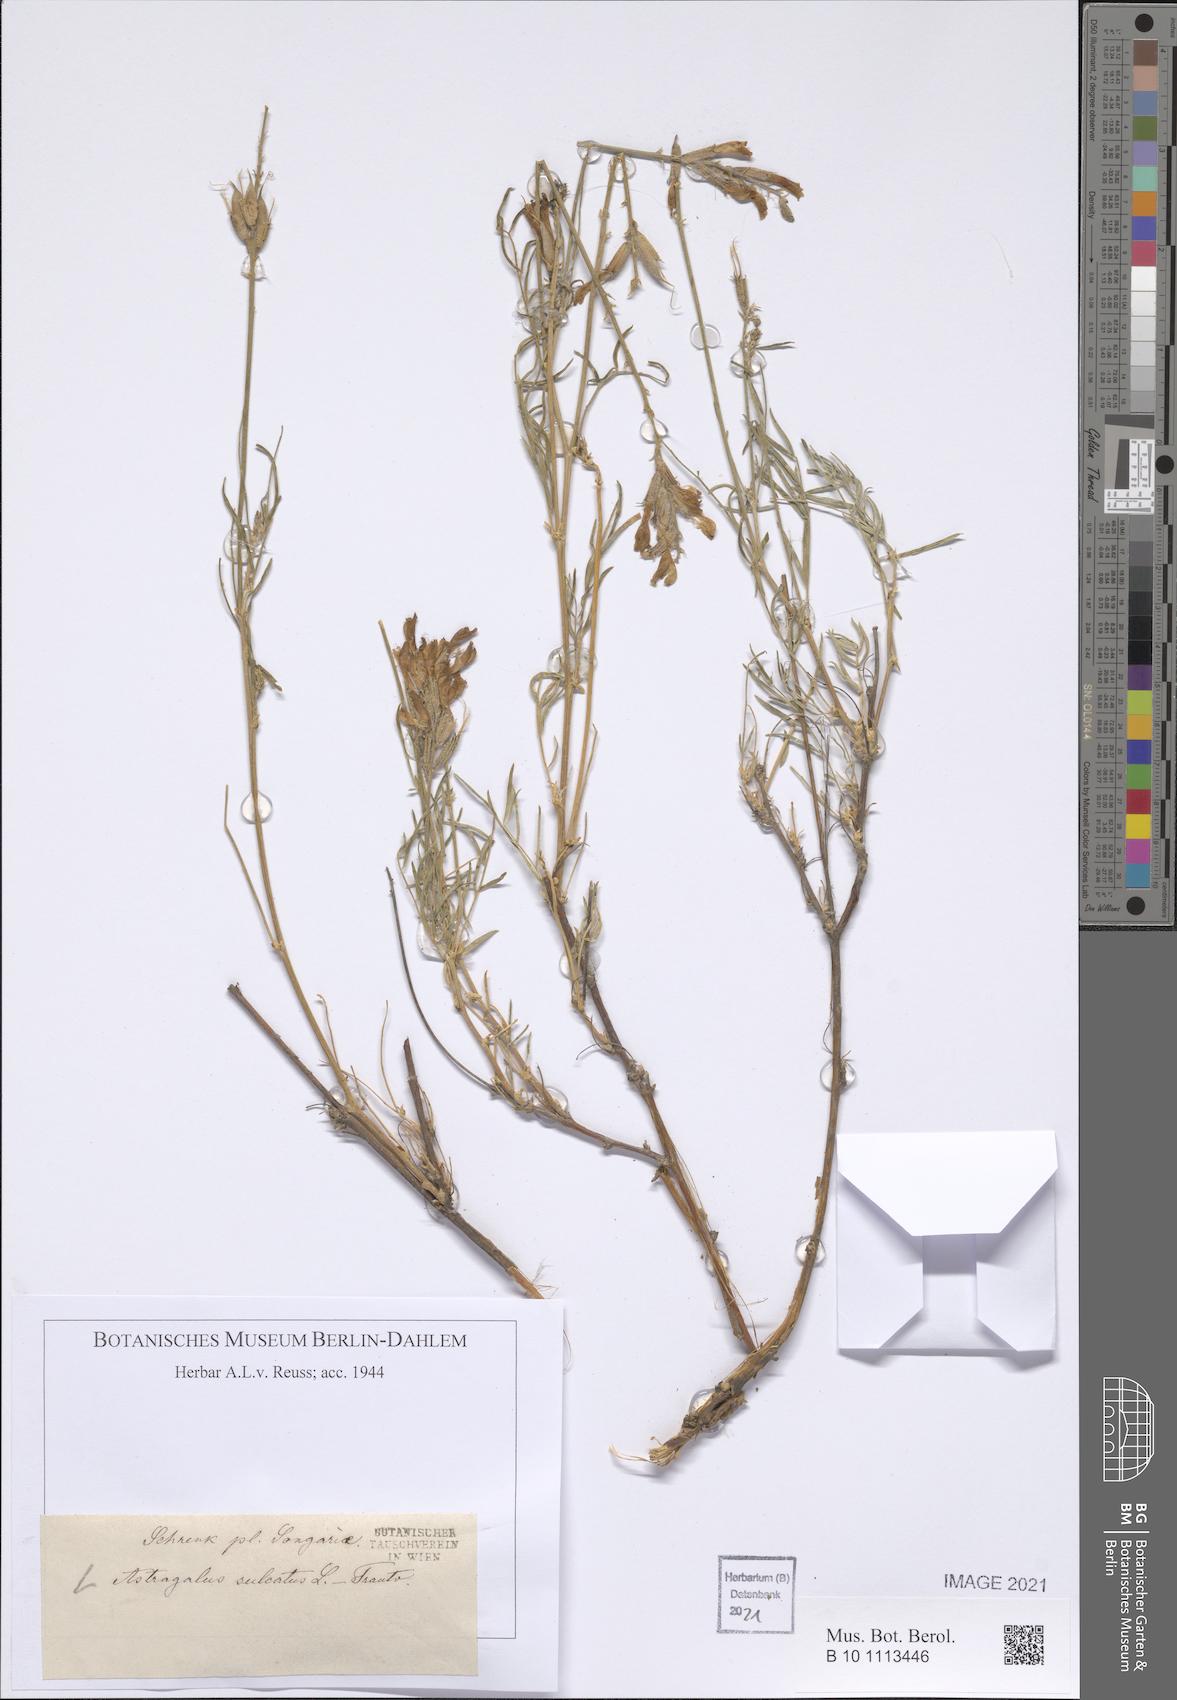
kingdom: Plantae
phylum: Tracheophyta
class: Magnoliopsida
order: Fabales
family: Fabaceae
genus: Astragalus
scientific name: Astragalus sulcatus
